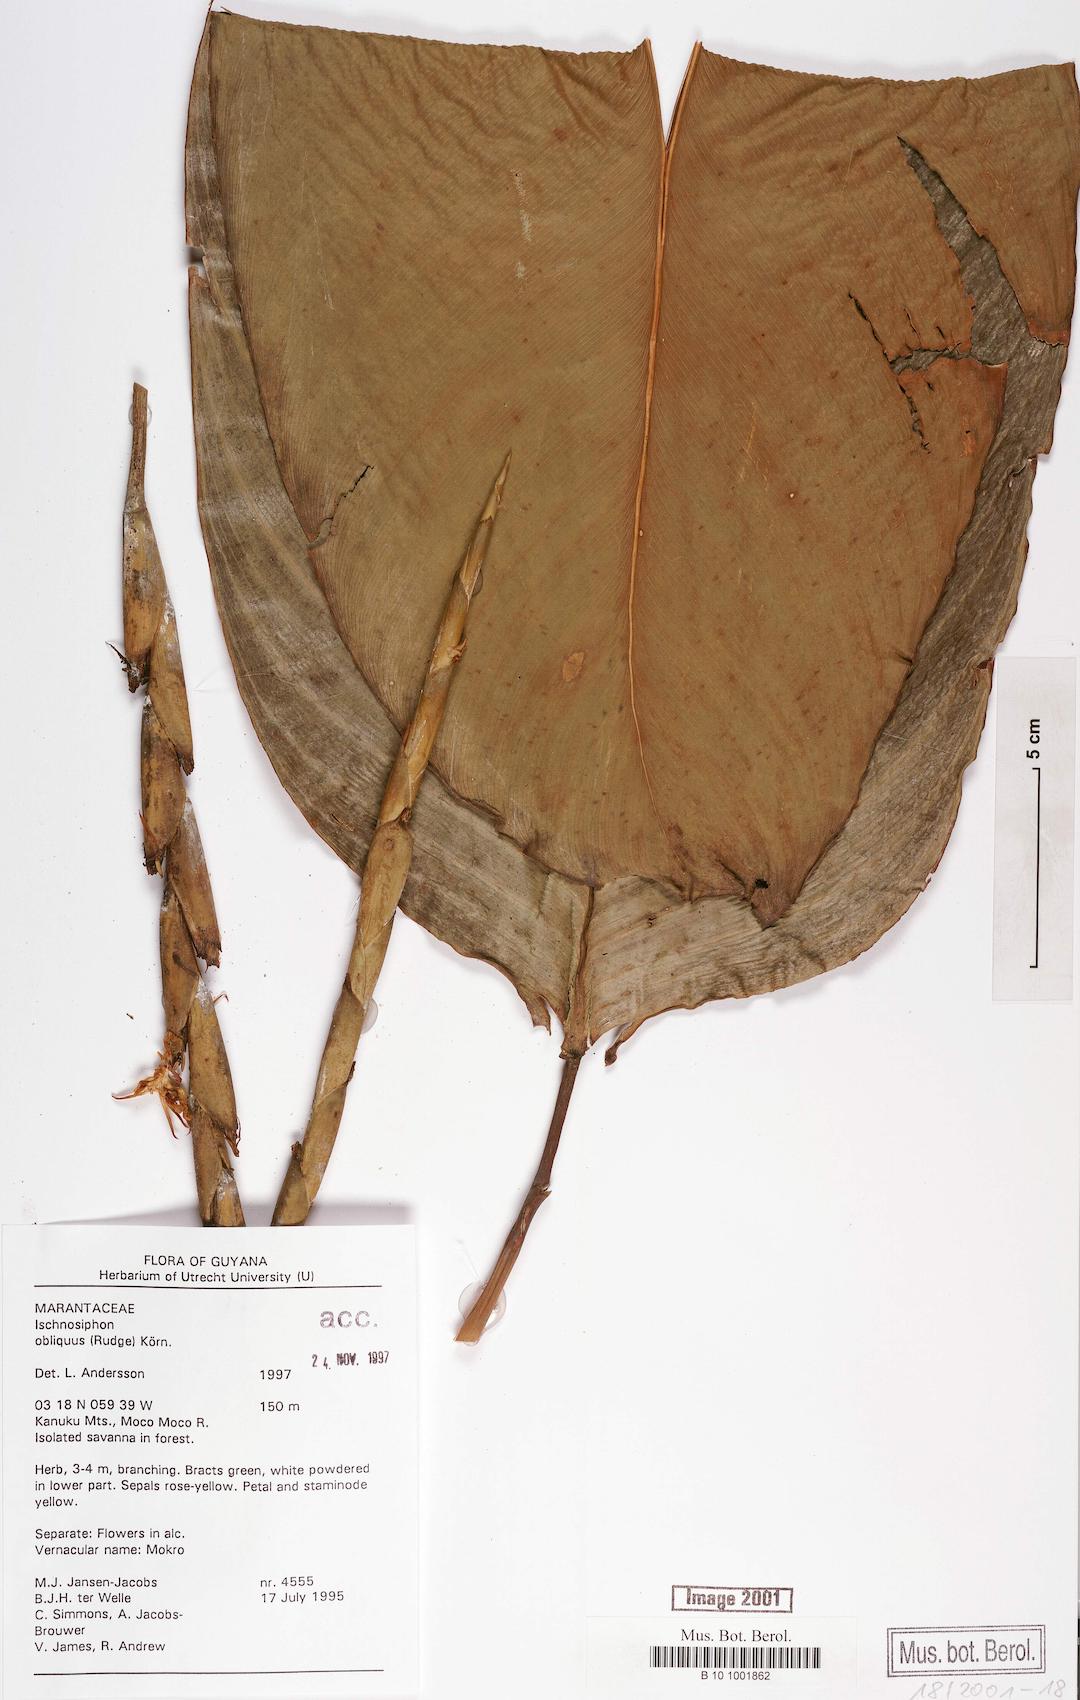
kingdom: Plantae
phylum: Tracheophyta
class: Liliopsida
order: Zingiberales
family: Marantaceae
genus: Ischnosiphon
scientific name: Ischnosiphon obliquus
